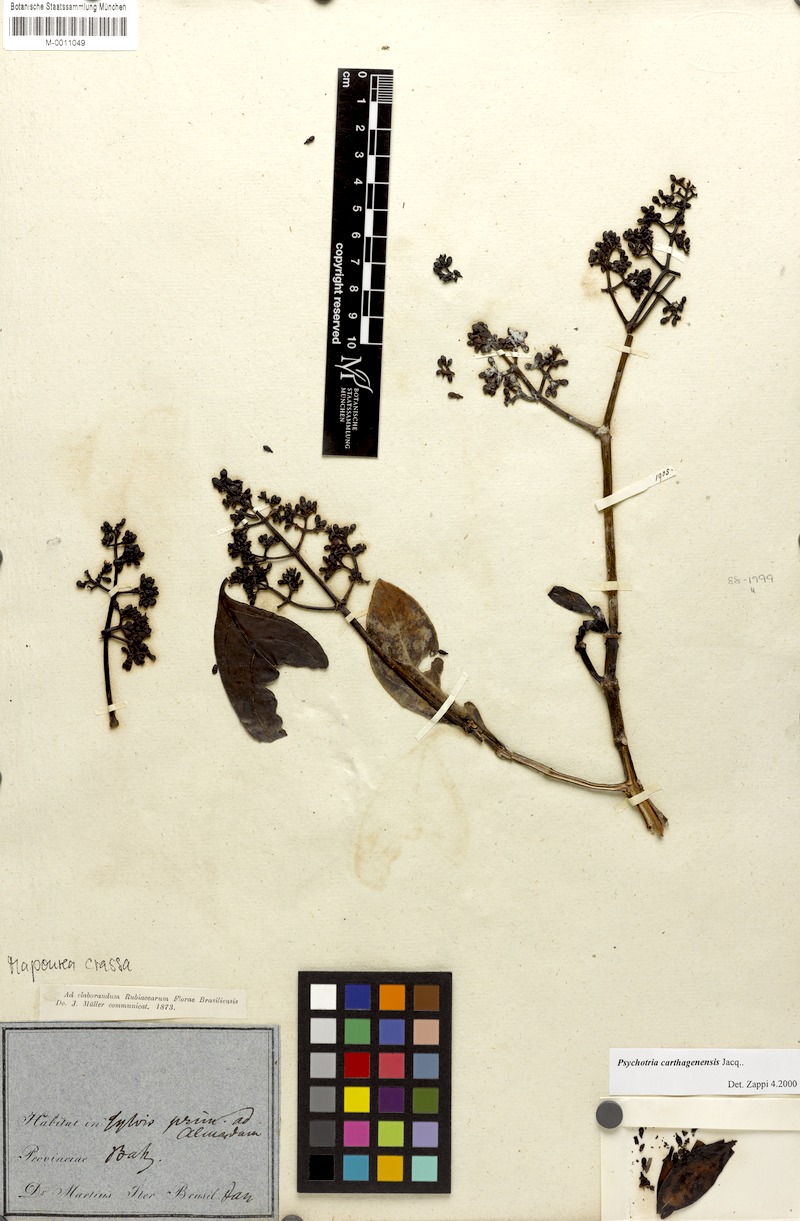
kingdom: Plantae
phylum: Tracheophyta
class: Magnoliopsida
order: Gentianales
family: Rubiaceae
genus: Psychotria
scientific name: Psychotria carthagenensis
